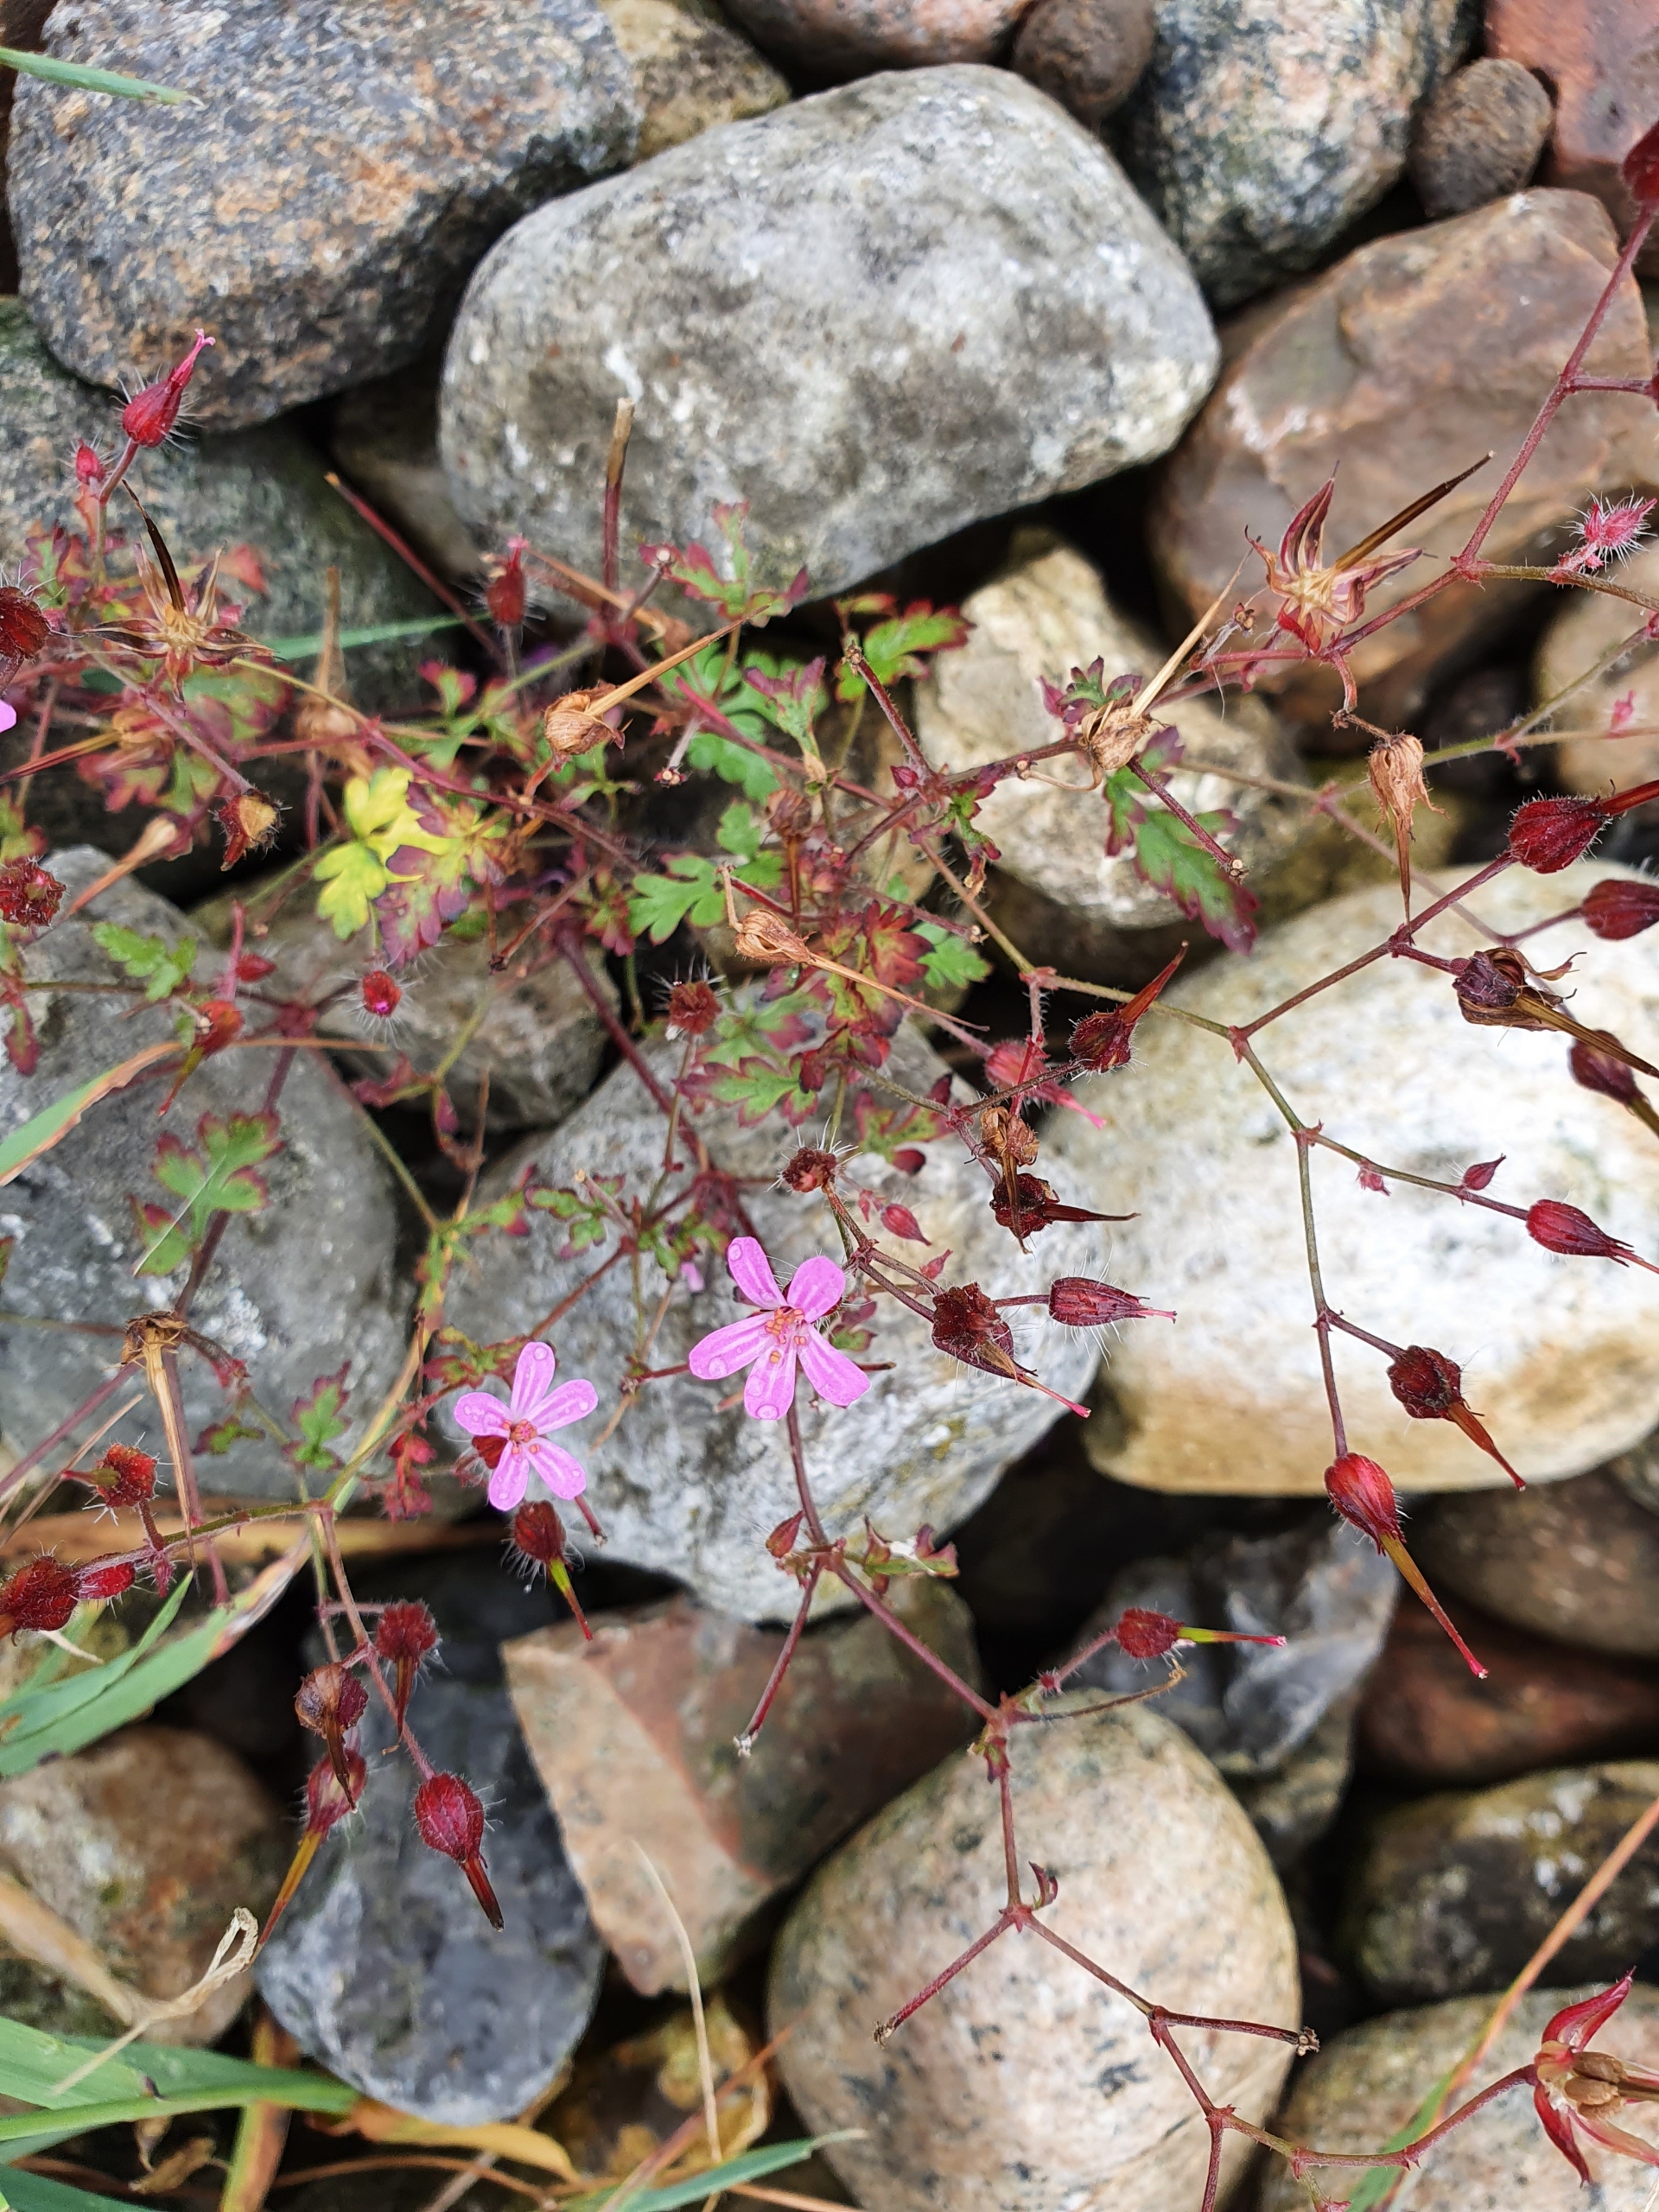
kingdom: Plantae
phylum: Tracheophyta
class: Magnoliopsida
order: Geraniales
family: Geraniaceae
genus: Geranium
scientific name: Geranium robertianum
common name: Stinkende storkenæb
